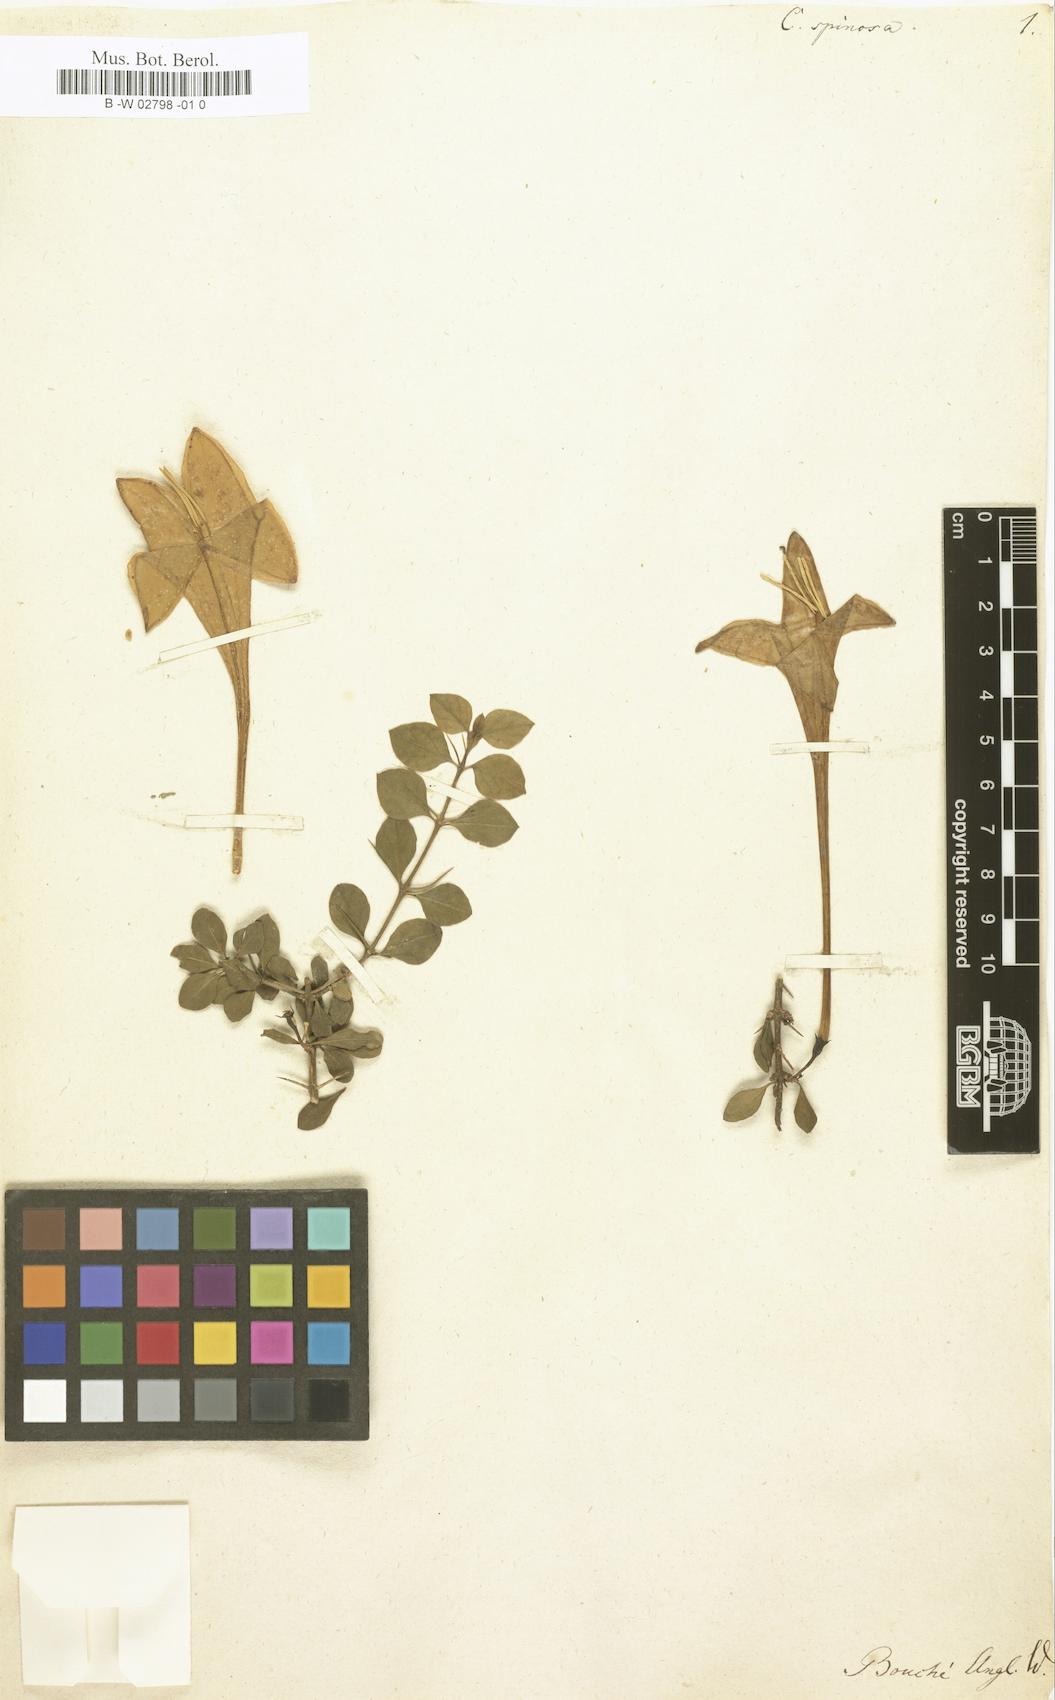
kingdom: Plantae
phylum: Tracheophyta
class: Magnoliopsida
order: Gentianales
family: Rubiaceae
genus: Catesbaea
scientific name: Catesbaea spinosa
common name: Spanish-guava
